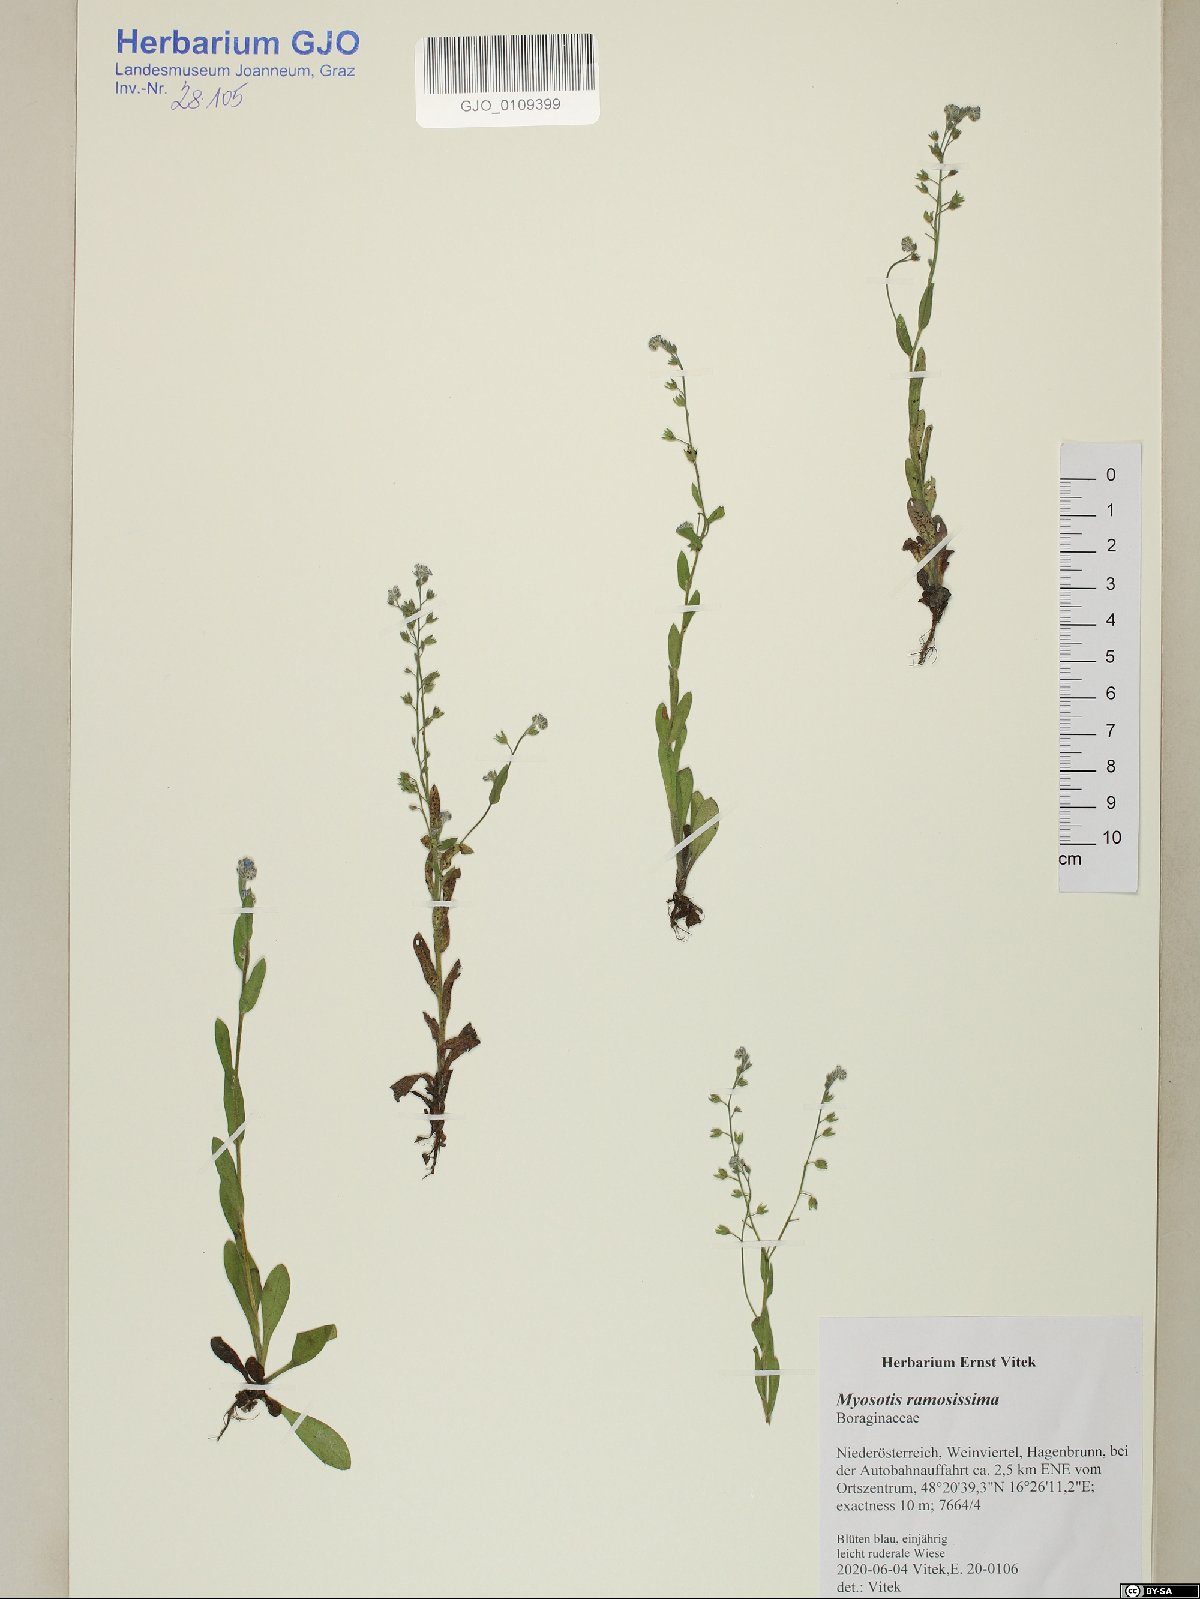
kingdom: Plantae
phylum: Tracheophyta
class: Magnoliopsida
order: Boraginales
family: Boraginaceae
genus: Myosotis
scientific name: Myosotis ramosissima
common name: Early forget-me-not
